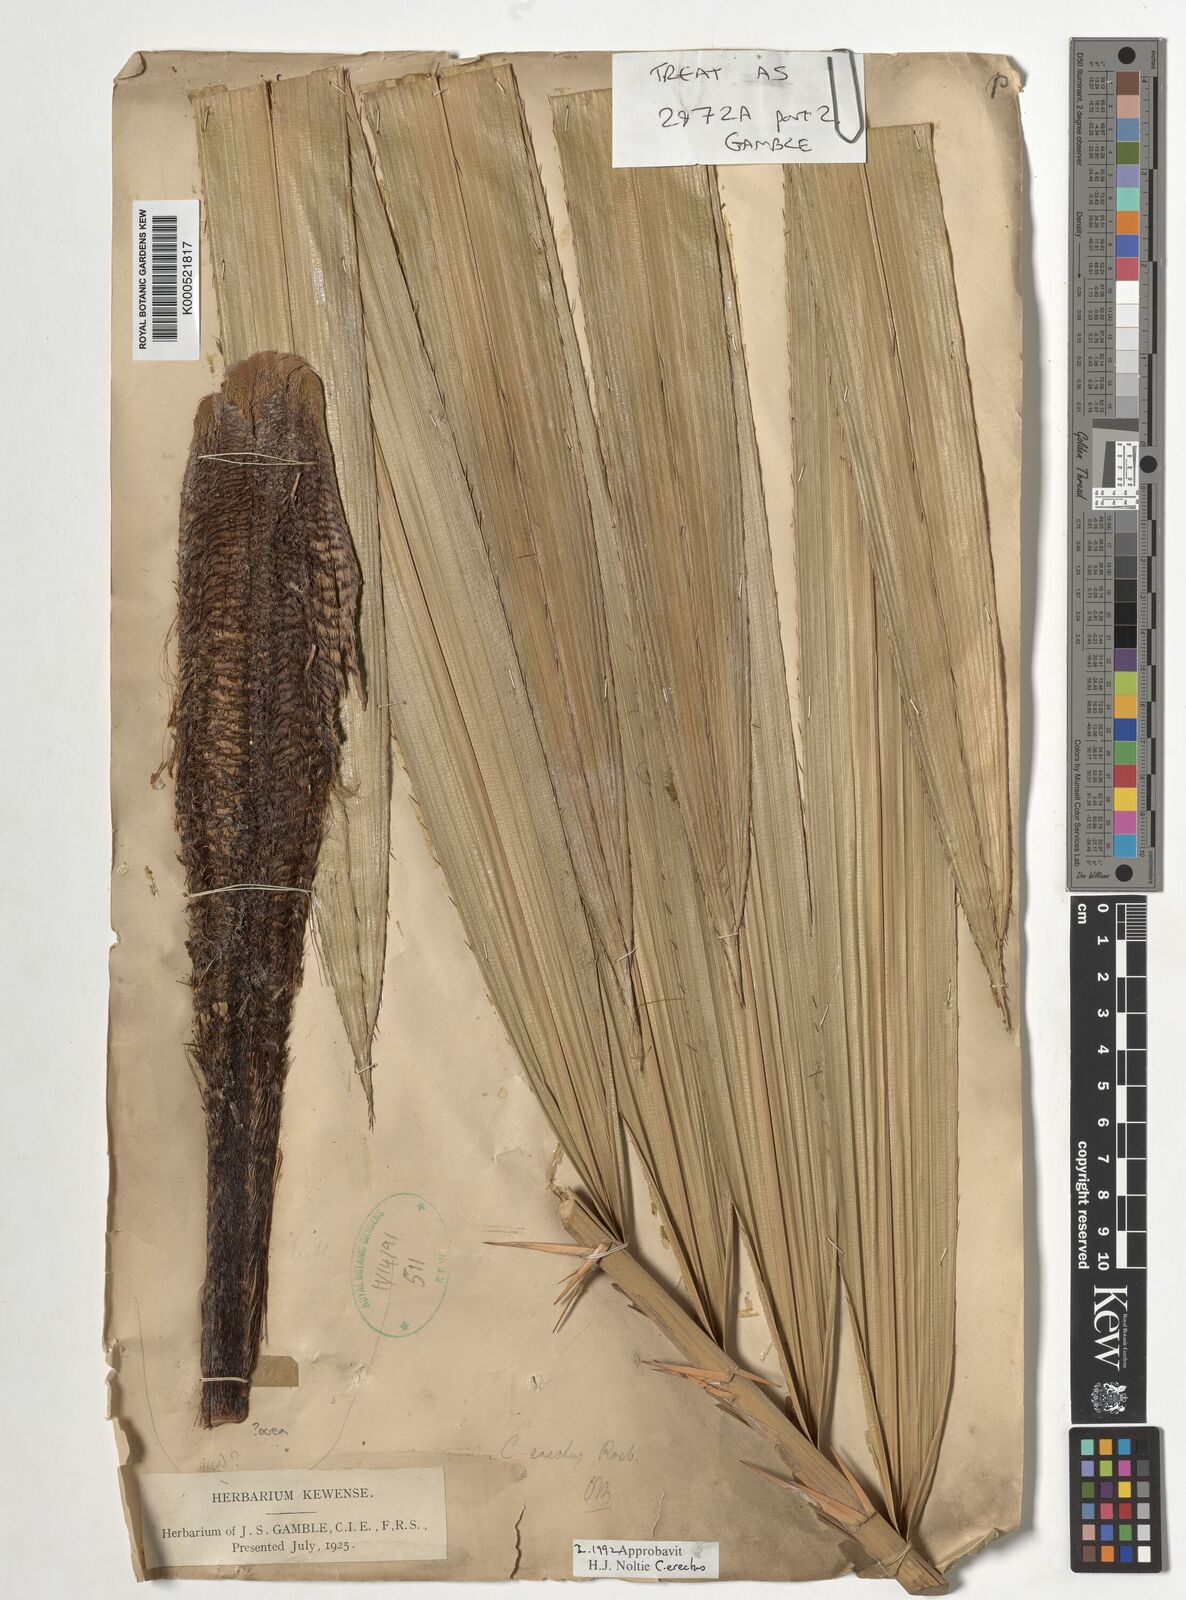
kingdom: Plantae
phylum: Tracheophyta
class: Liliopsida
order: Arecales
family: Arecaceae
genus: Calamus
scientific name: Calamus erectus
